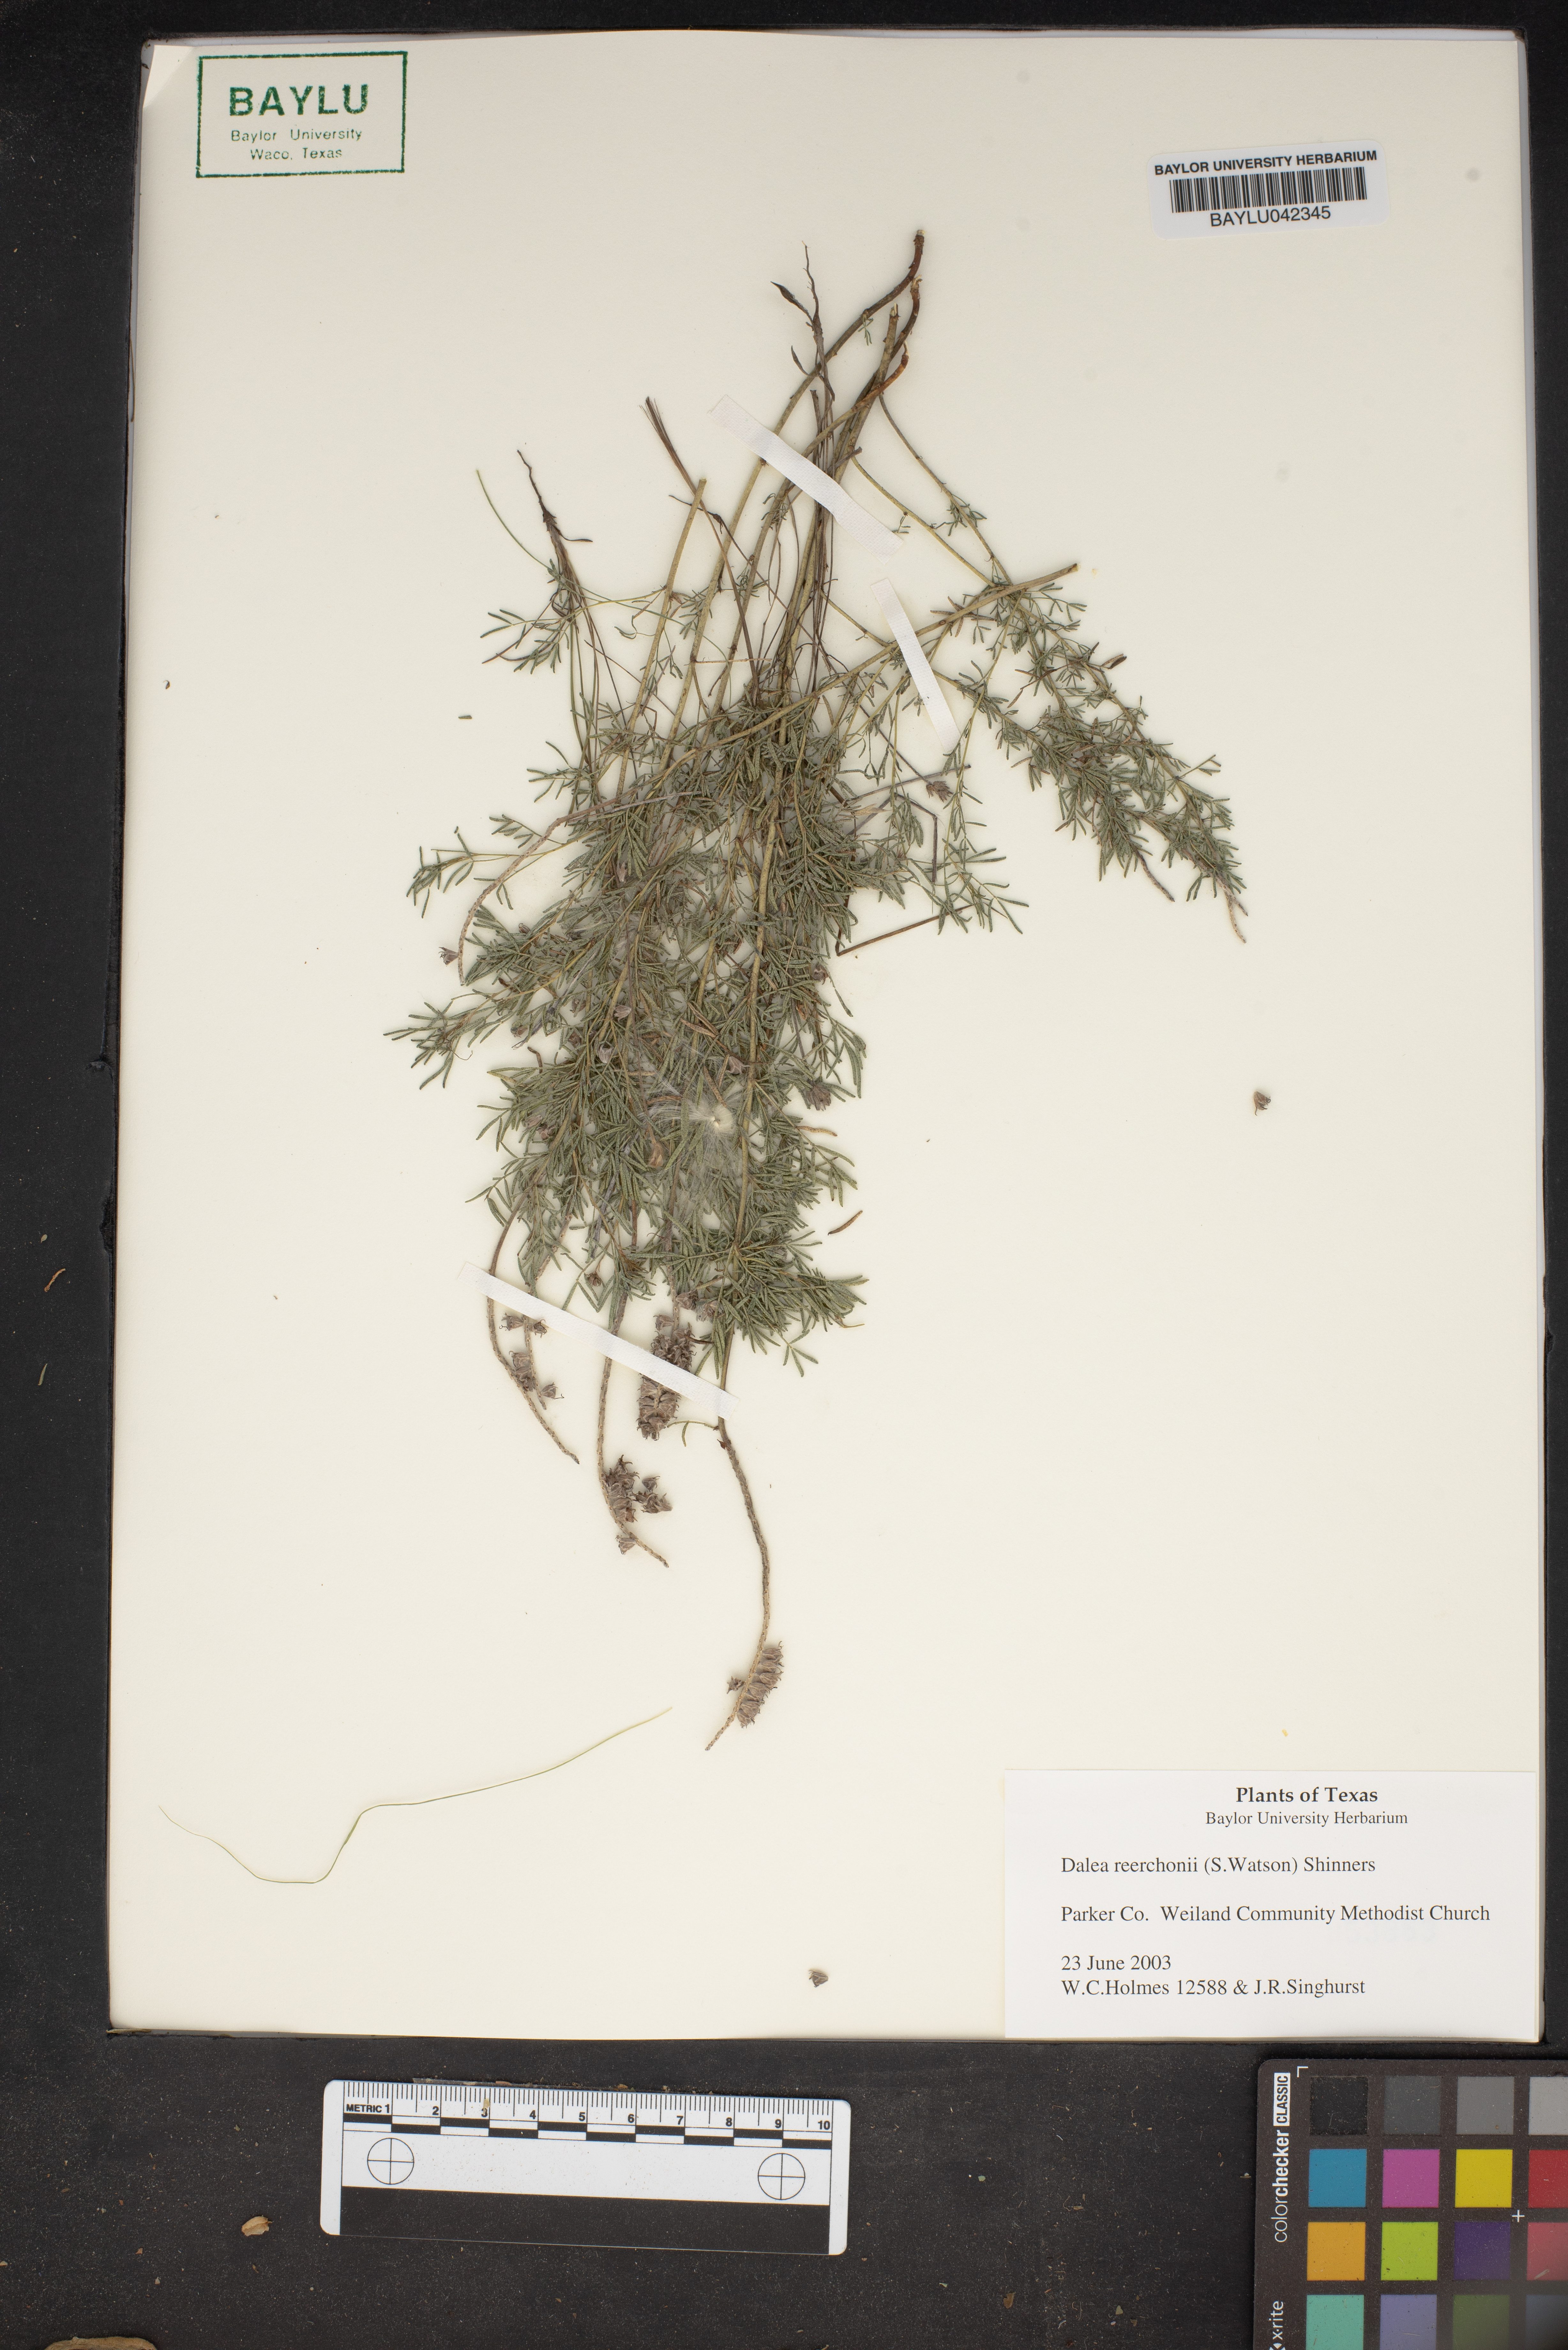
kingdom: Plantae
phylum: Tracheophyta
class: Magnoliopsida
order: Fabales
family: Fabaceae
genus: Dalea
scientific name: Dalea reverchonii
